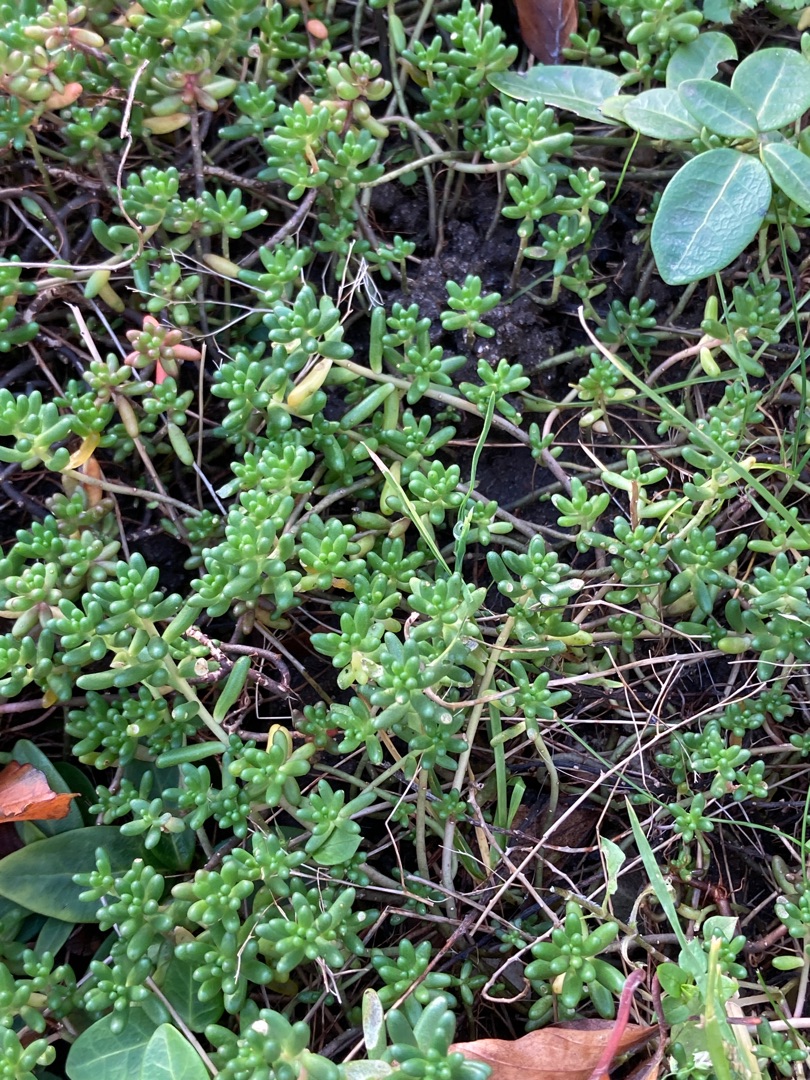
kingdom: Plantae
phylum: Tracheophyta
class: Magnoliopsida
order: Saxifragales
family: Crassulaceae
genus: Sedum
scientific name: Sedum album
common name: Hvid stenurt
